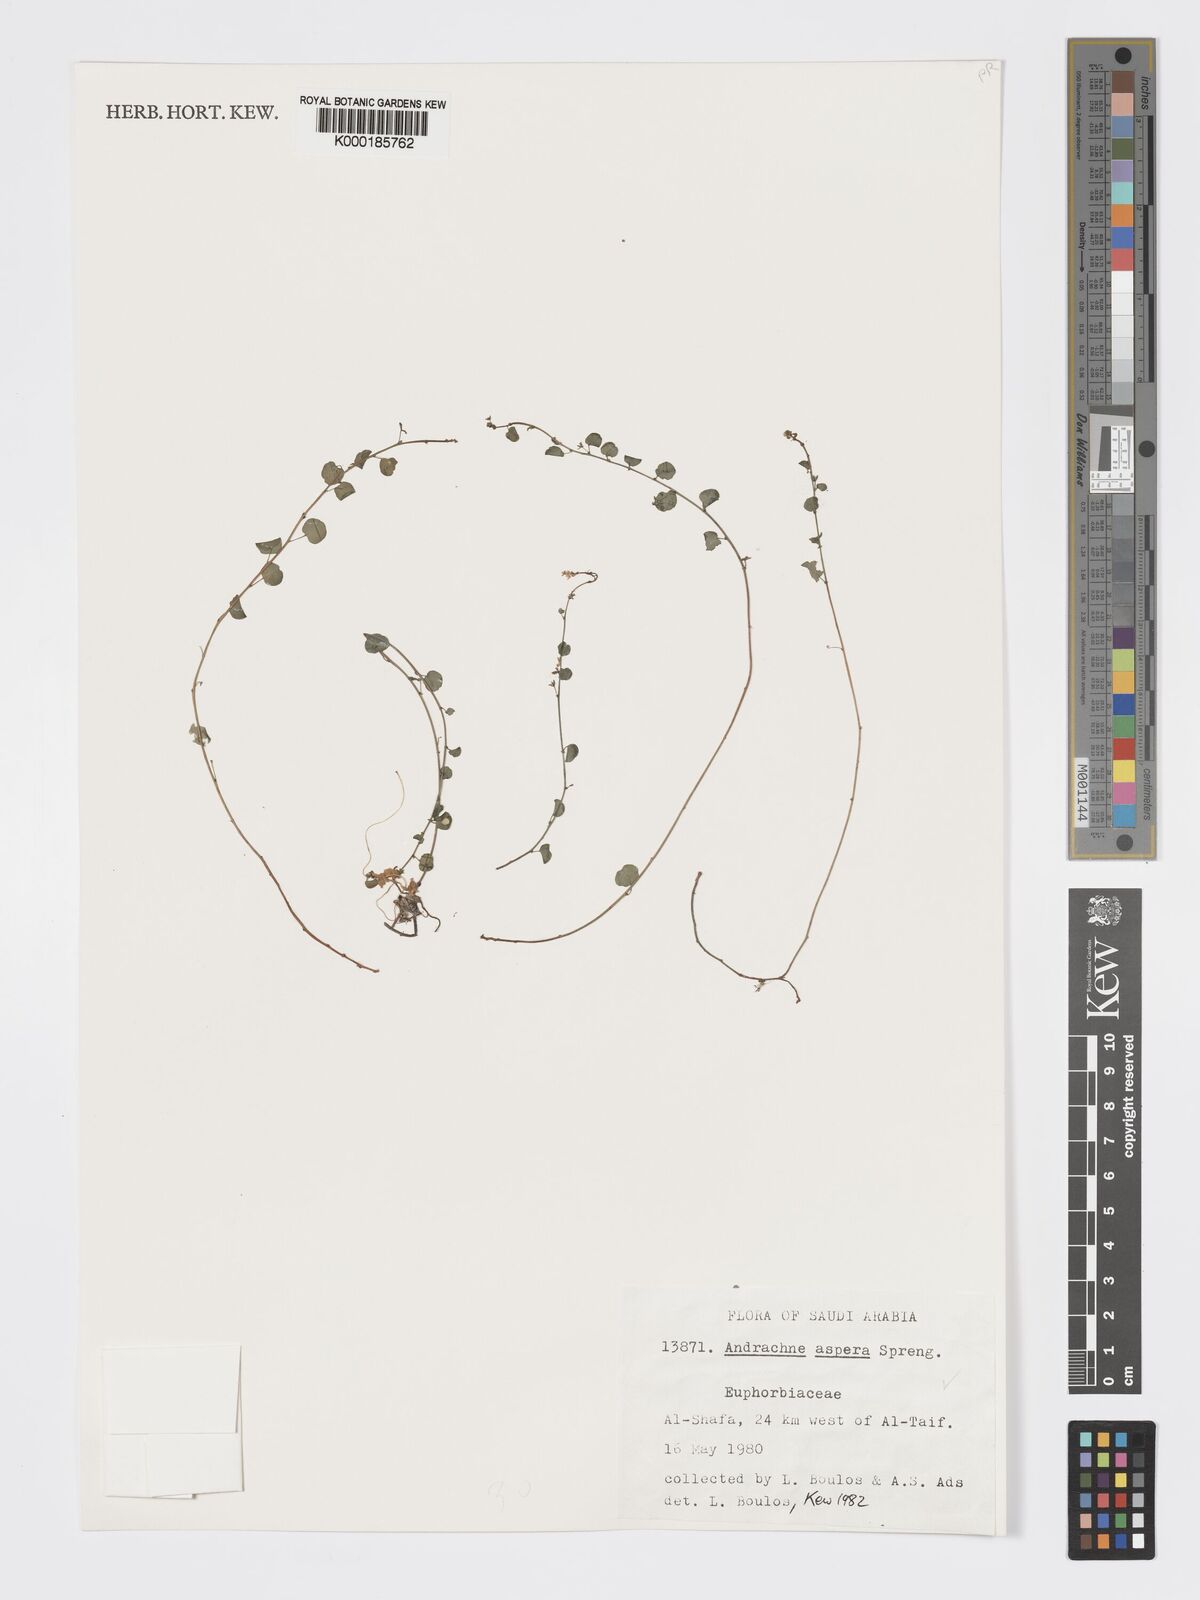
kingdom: Plantae
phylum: Tracheophyta
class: Magnoliopsida
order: Malpighiales
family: Phyllanthaceae
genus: Andrachne
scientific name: Andrachne aspera
